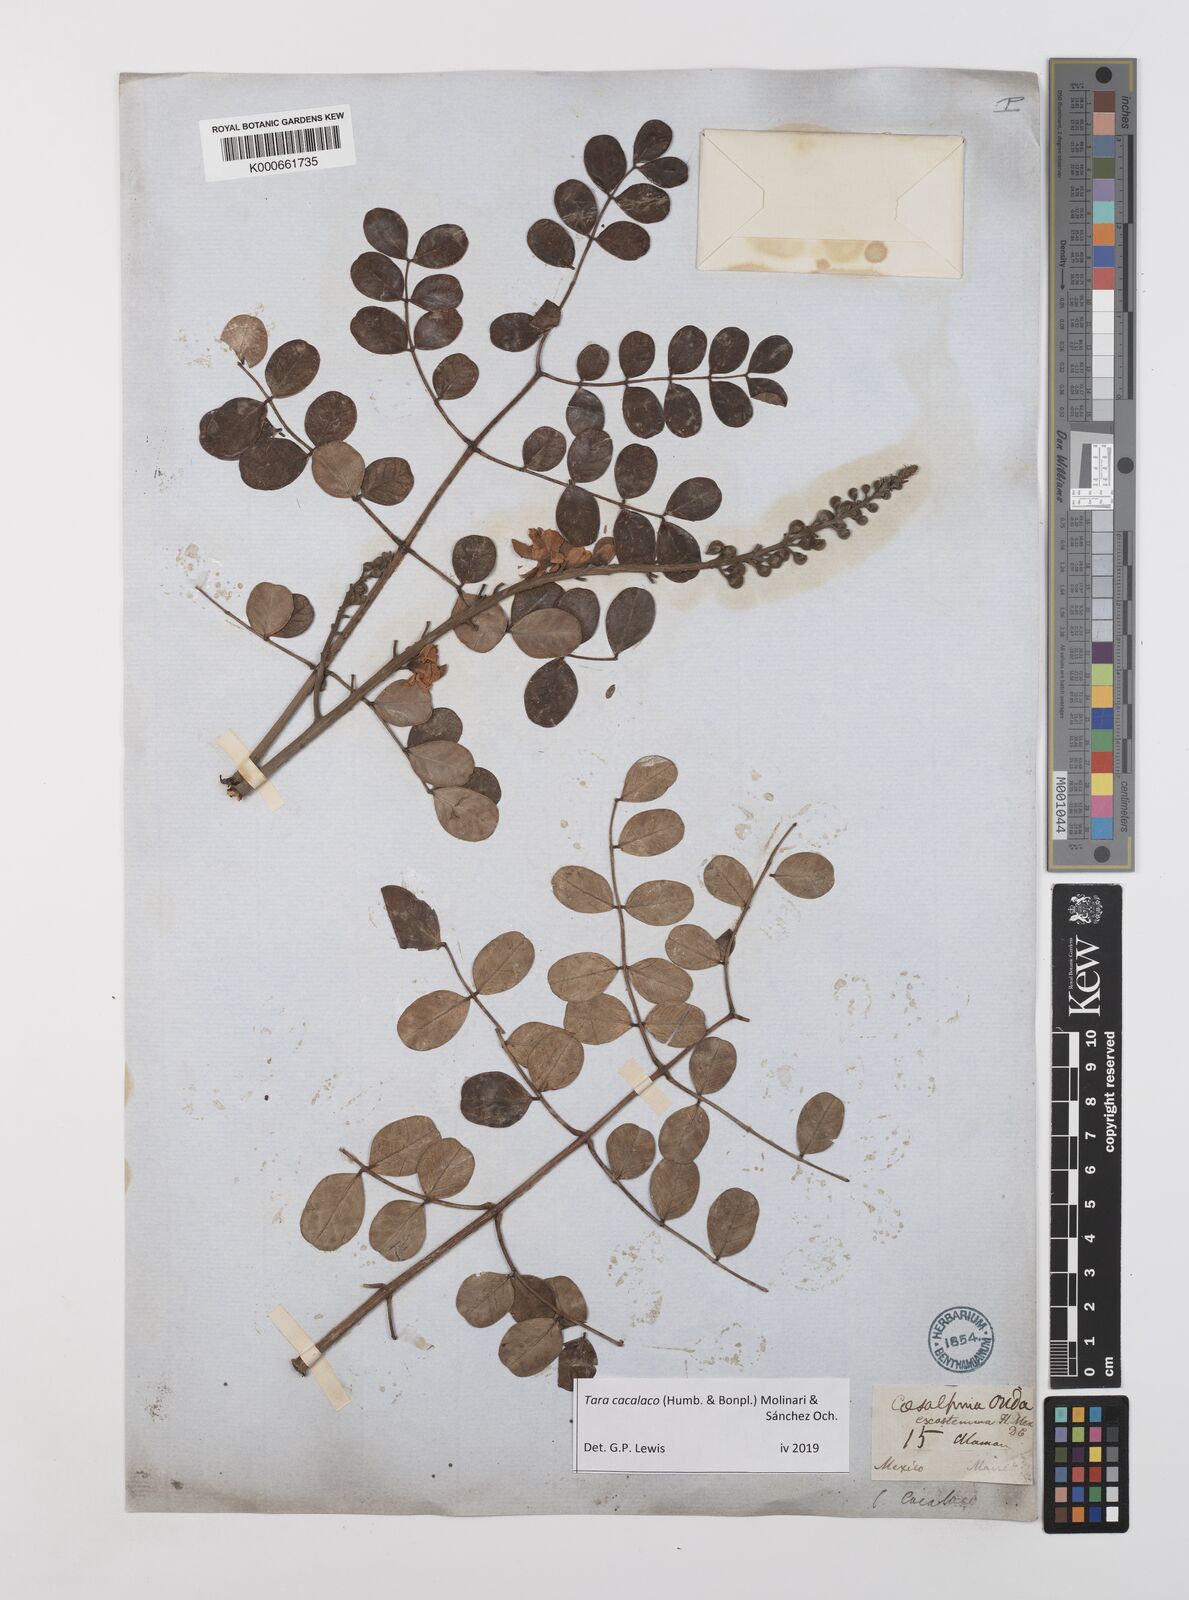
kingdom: Plantae
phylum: Tracheophyta
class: Magnoliopsida
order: Fabales
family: Fabaceae
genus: Tara
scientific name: Tara cacalaco
